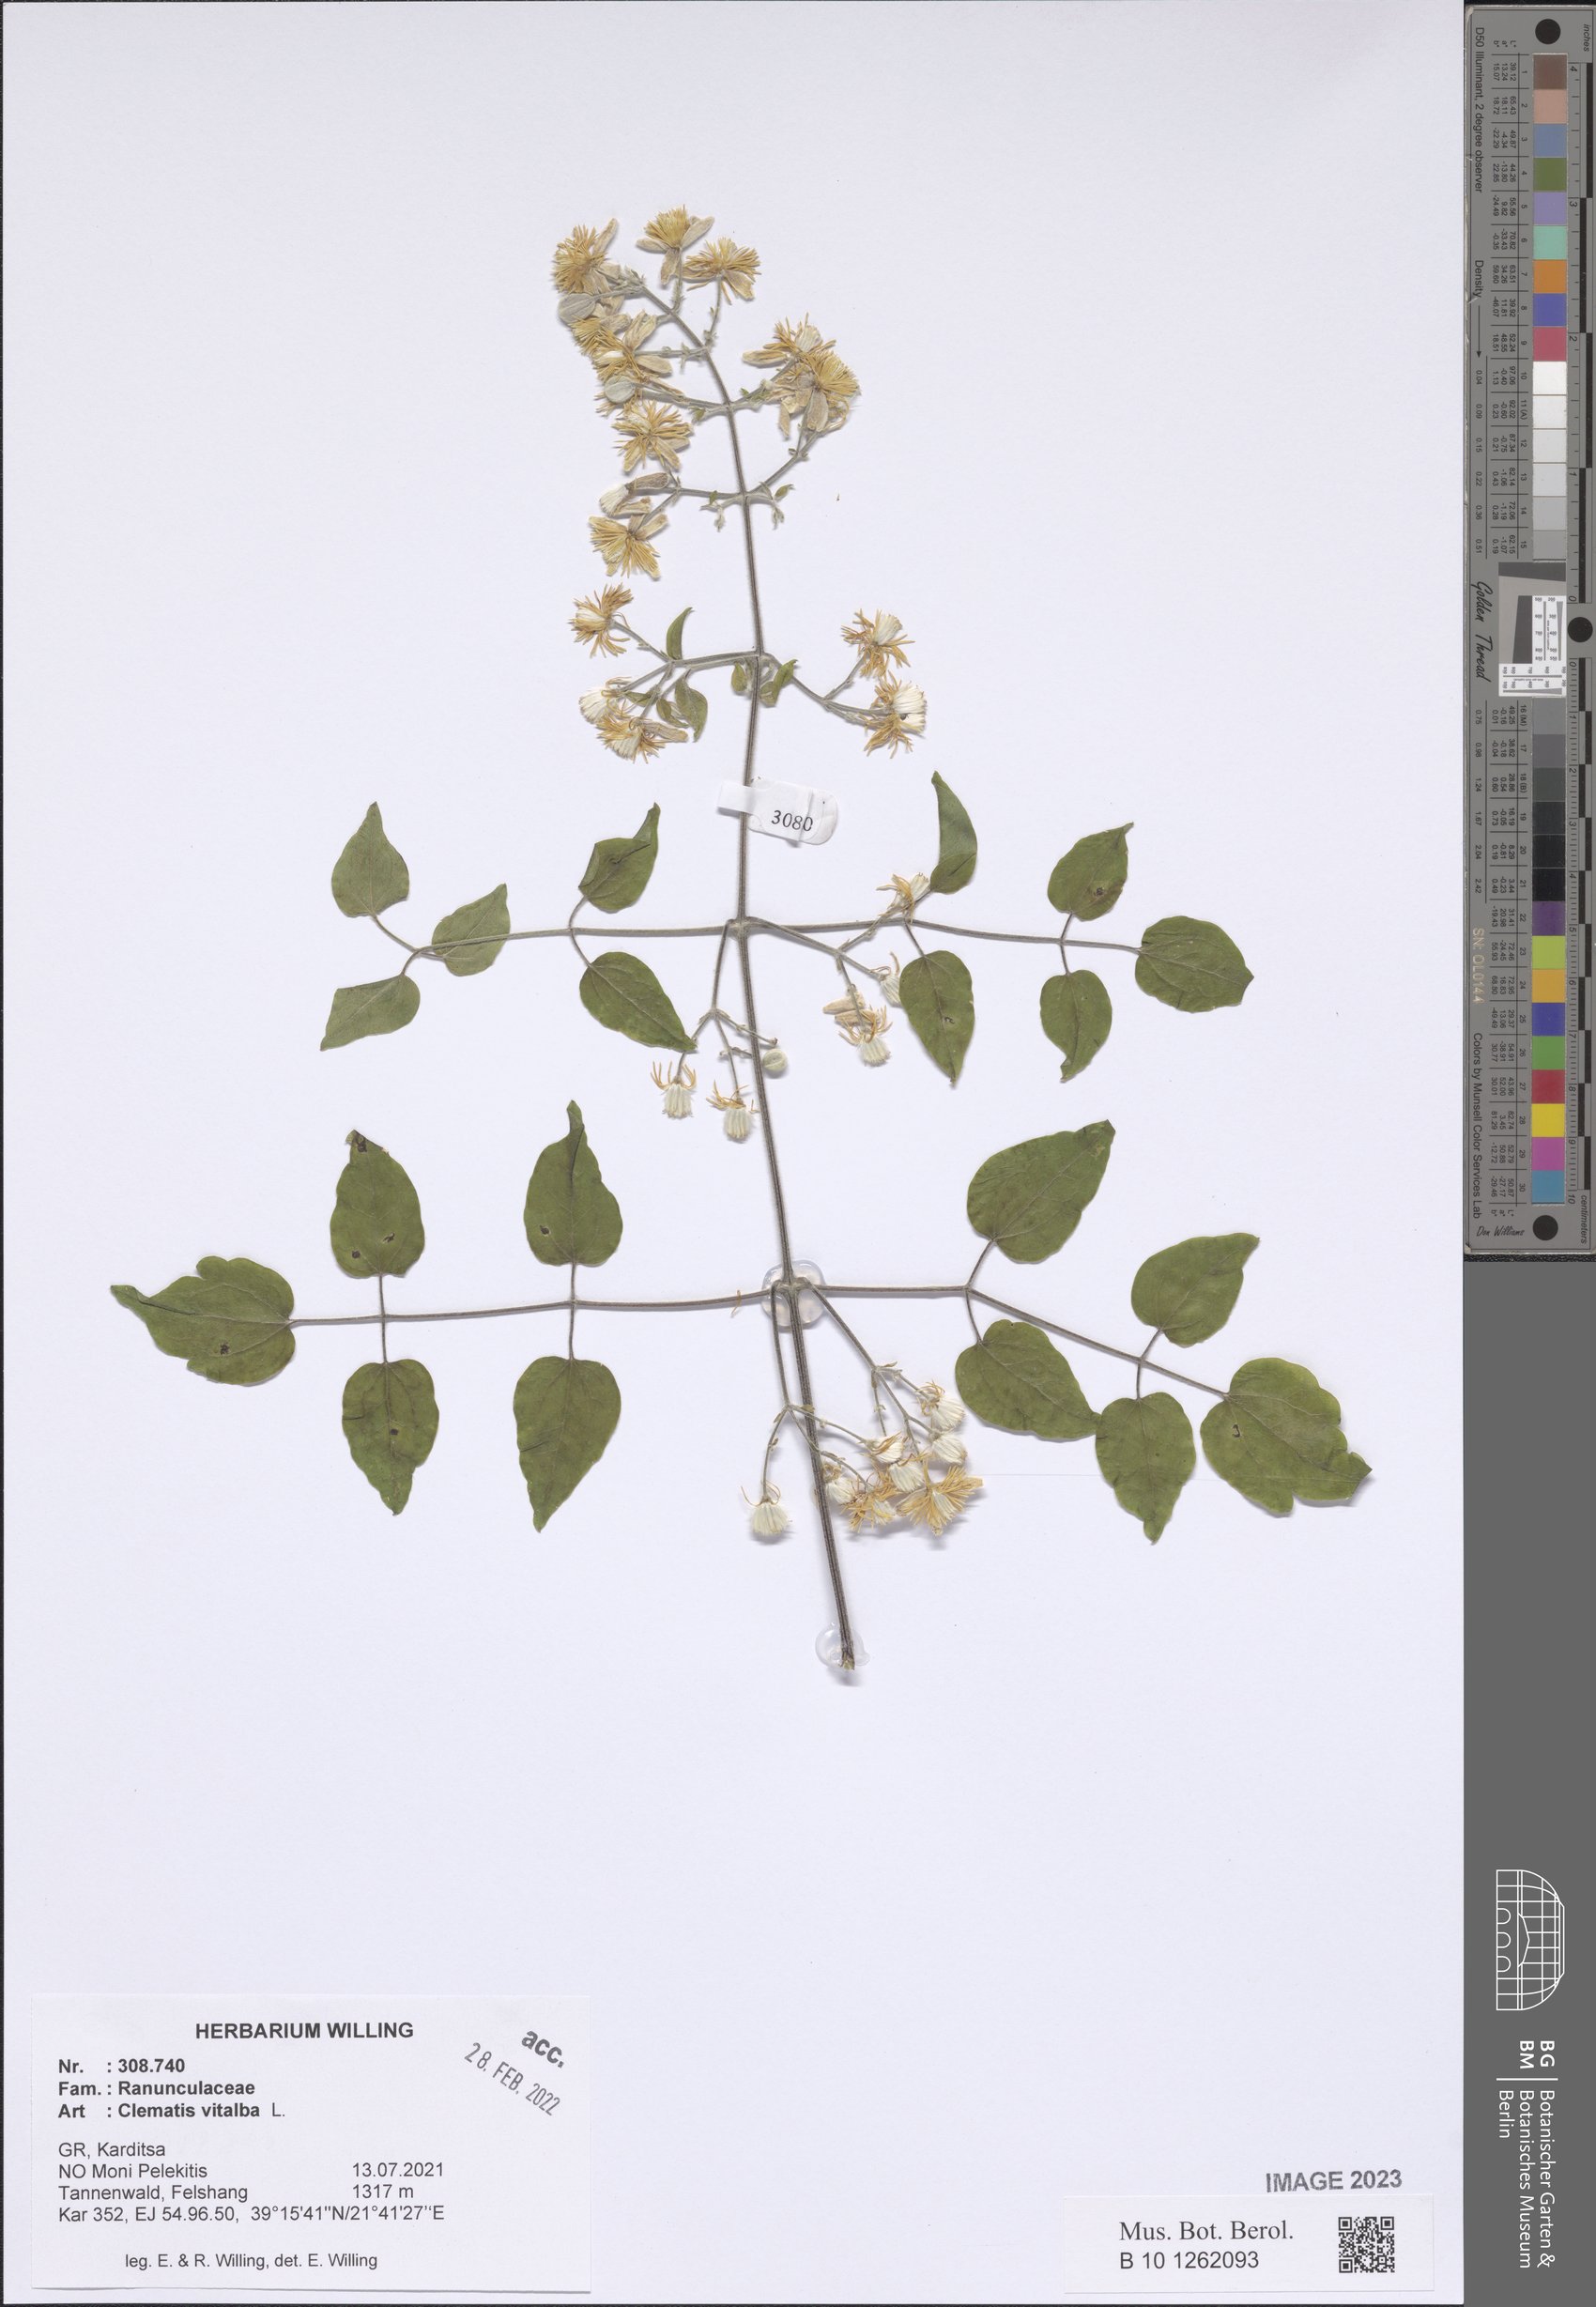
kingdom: Plantae
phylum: Tracheophyta
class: Magnoliopsida
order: Ranunculales
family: Ranunculaceae
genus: Clematis
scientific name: Clematis vitalba
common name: Evergreen clematis
